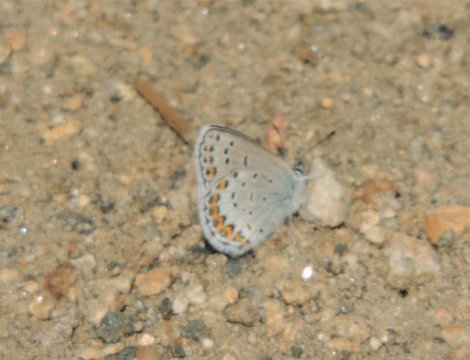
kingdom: Animalia
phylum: Arthropoda
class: Insecta
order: Lepidoptera
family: Lycaenidae
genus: Lycaeides
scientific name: Lycaeides melissa
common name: Melissa Blue
